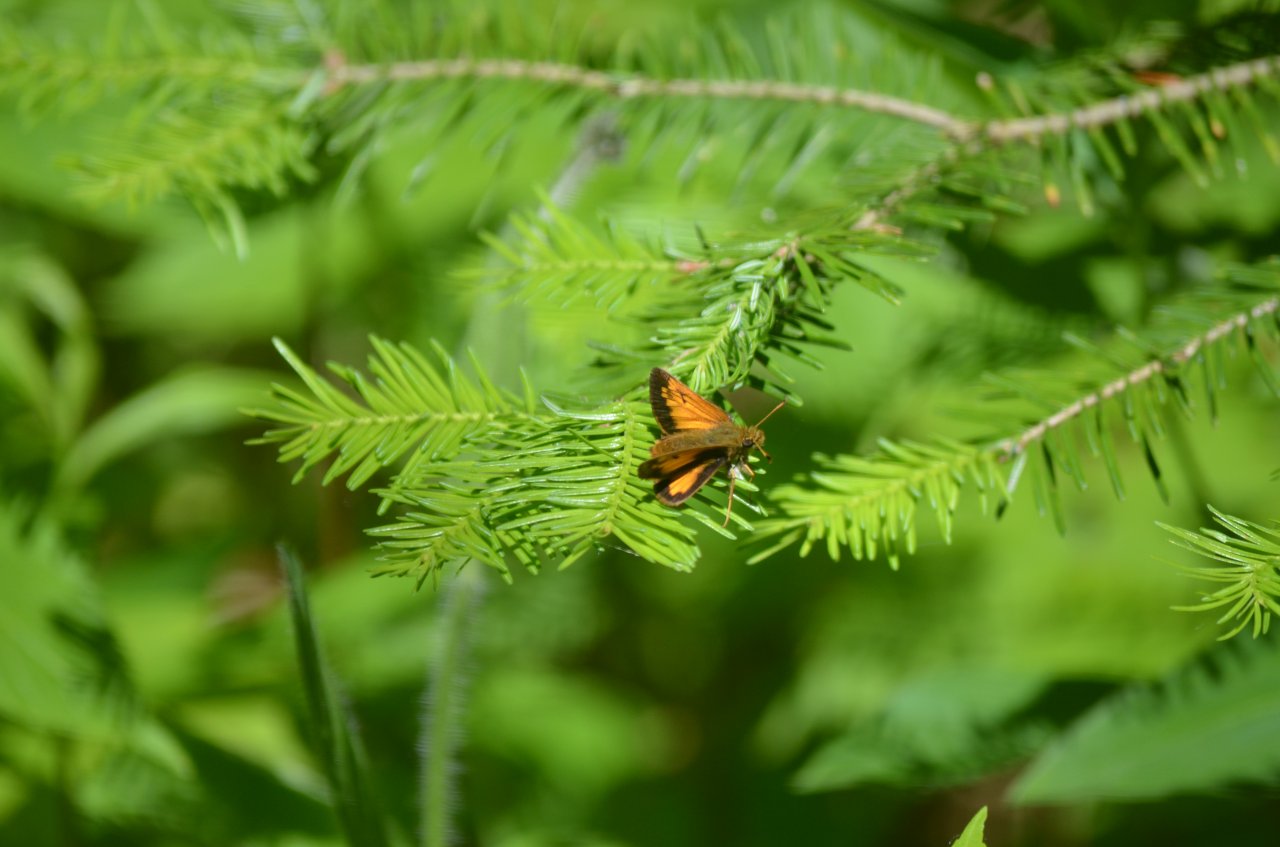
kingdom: Animalia
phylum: Arthropoda
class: Insecta
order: Lepidoptera
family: Hesperiidae
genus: Lon
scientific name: Lon hobomok
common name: Hobomok Skipper
